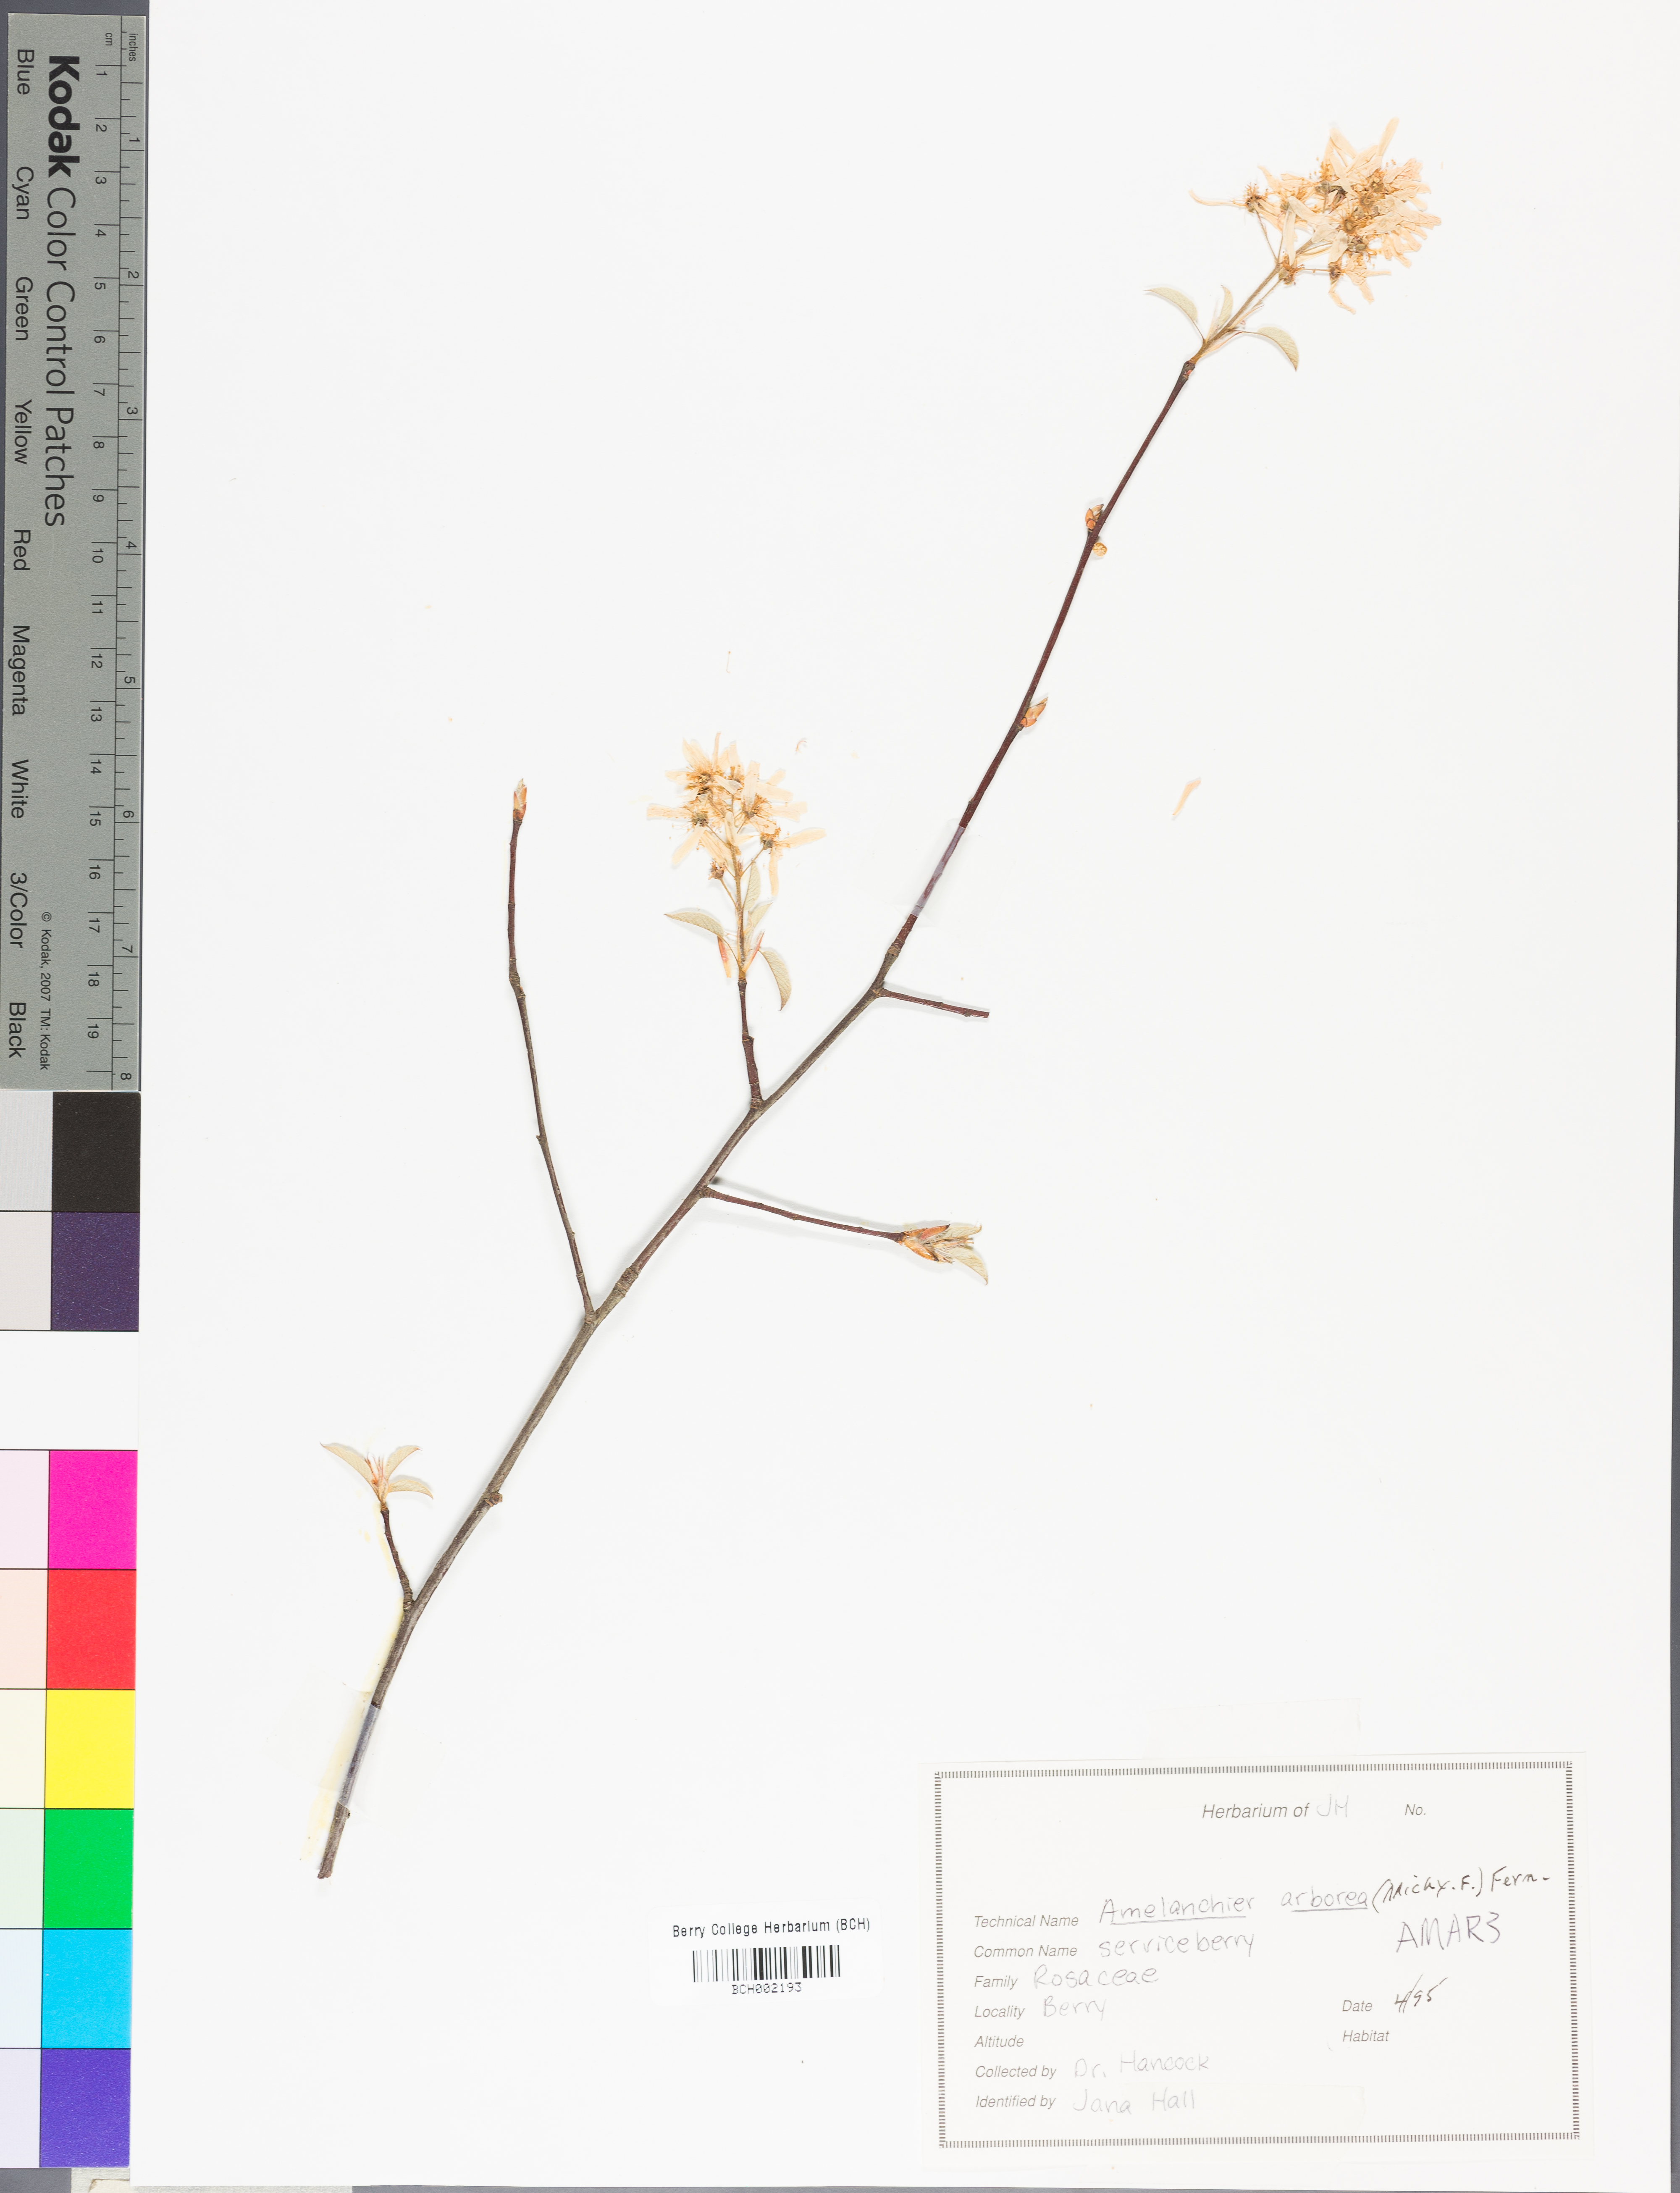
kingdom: Plantae
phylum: Tracheophyta
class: Magnoliopsida
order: Rosales
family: Rosaceae
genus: Amelanchier
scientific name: Amelanchier arborea
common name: Downy serviceberry
